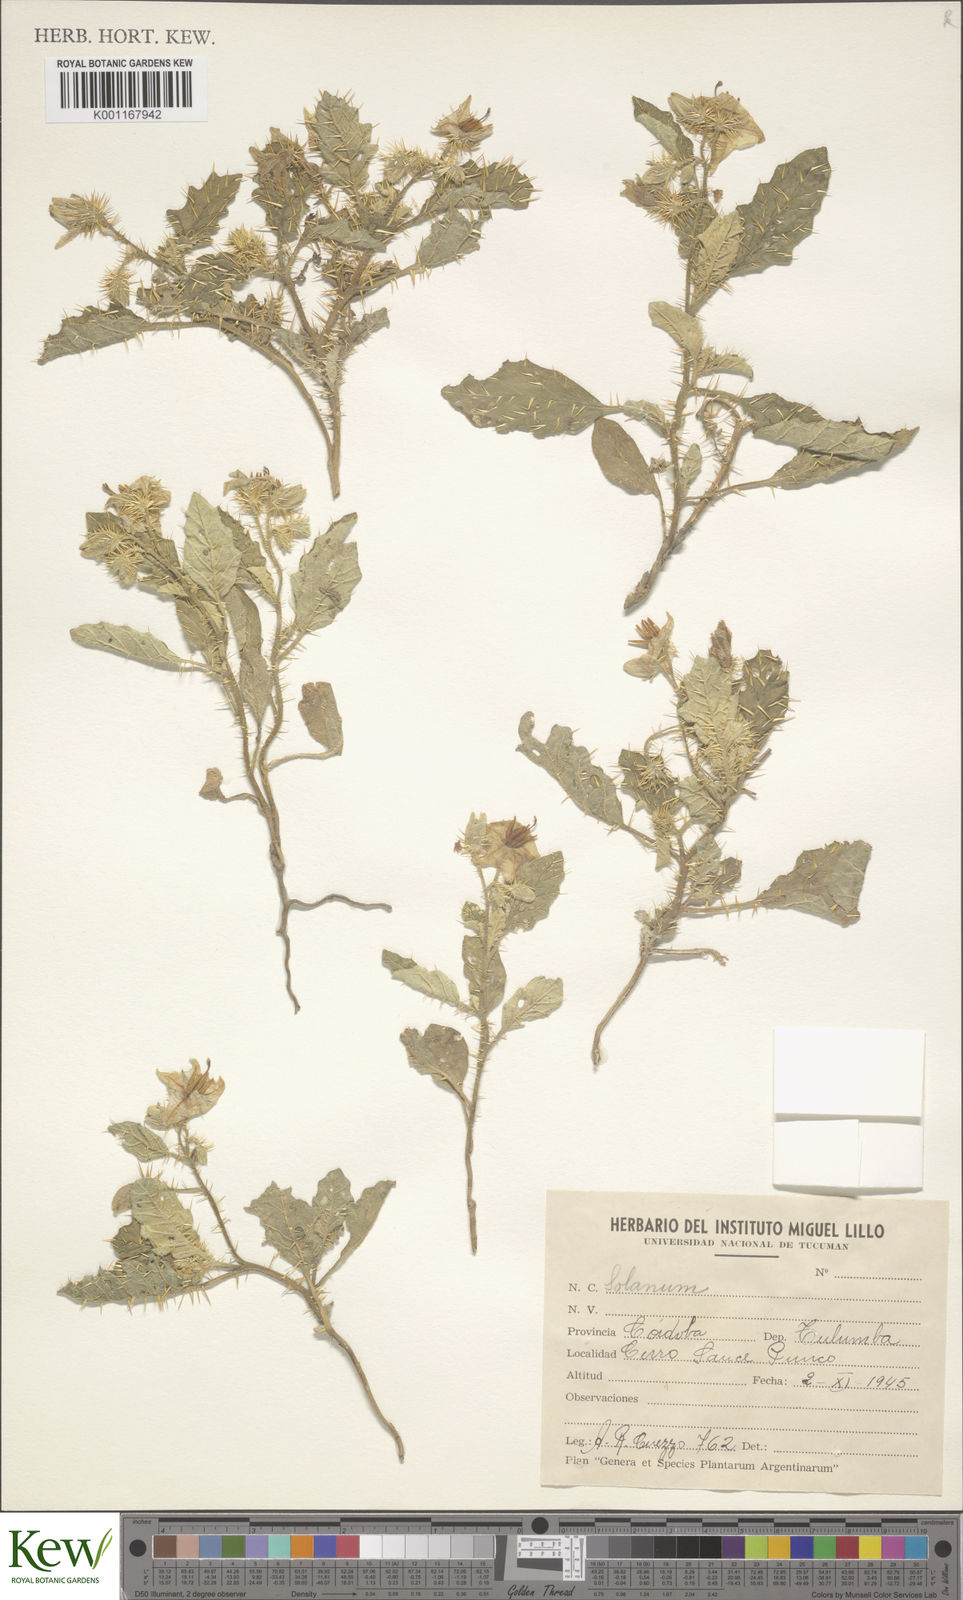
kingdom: Plantae
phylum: Tracheophyta
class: Magnoliopsida
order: Solanales
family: Solanaceae
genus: Solanum
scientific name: Solanum
